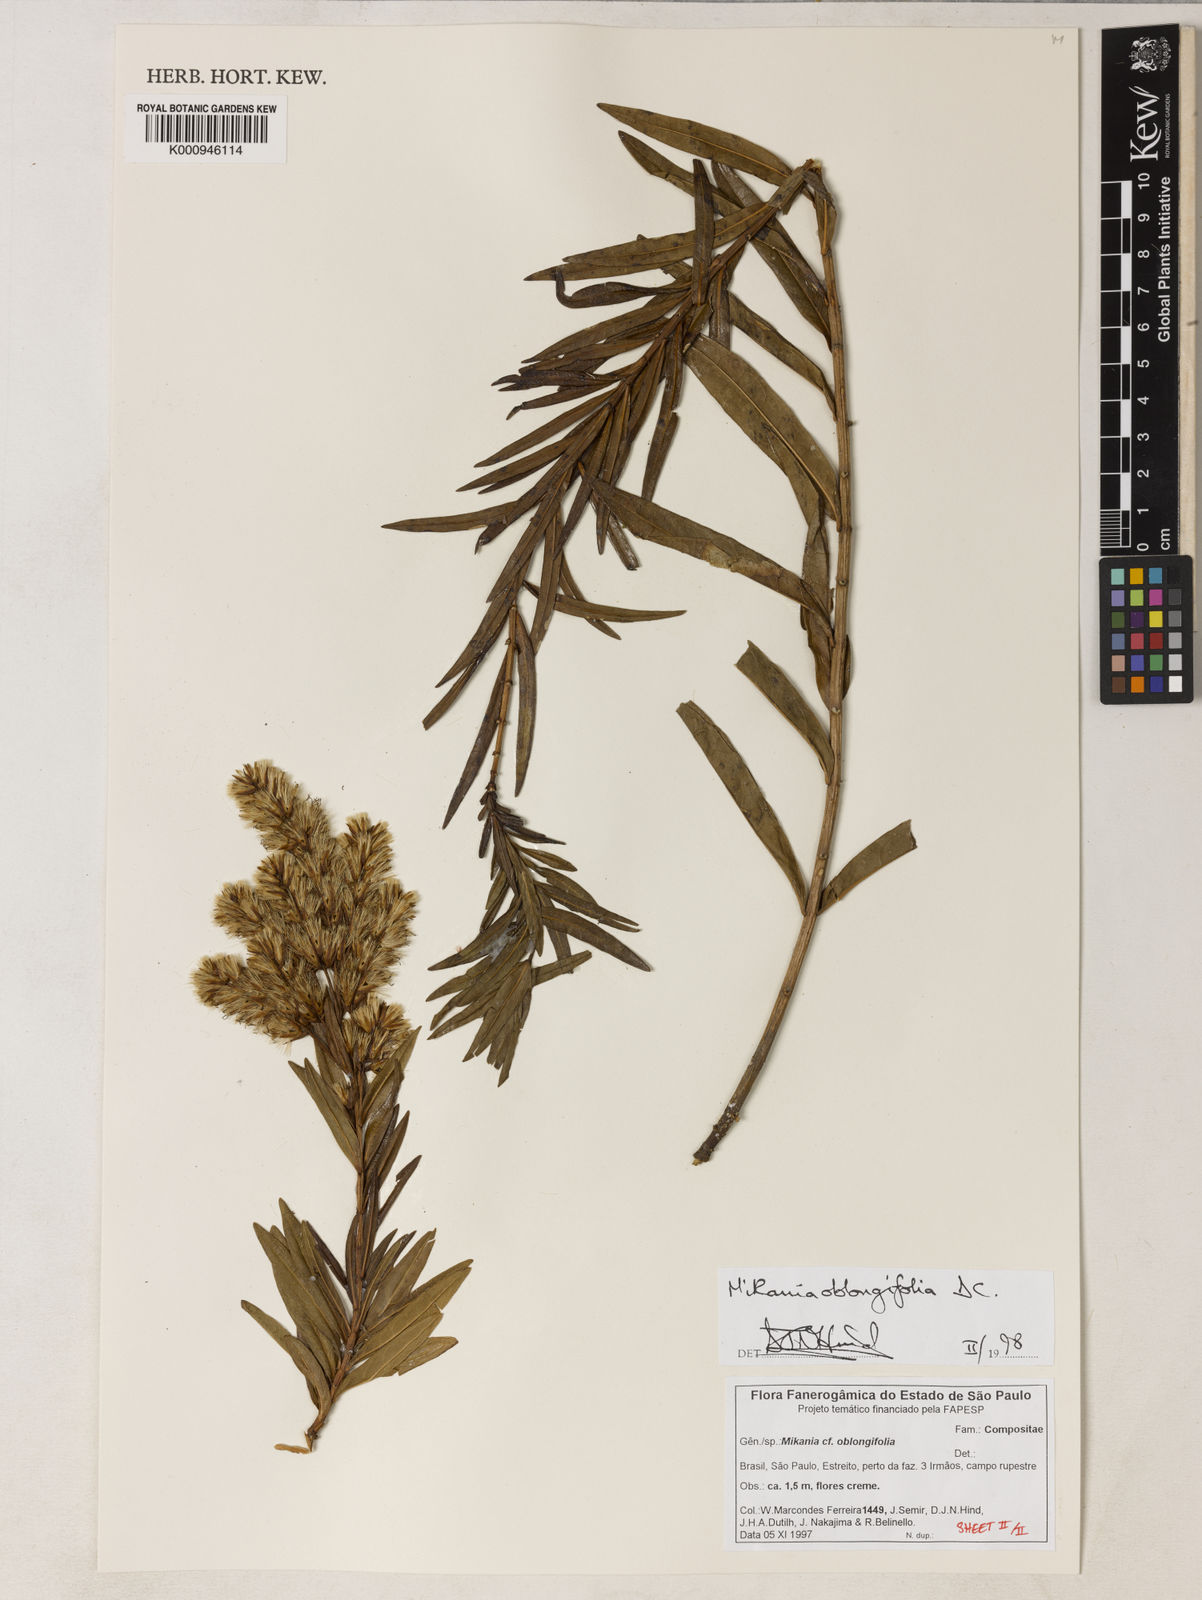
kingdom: Plantae
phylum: Tracheophyta
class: Magnoliopsida
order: Asterales
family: Asteraceae
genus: Mikania
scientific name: Mikania oblongifolia
